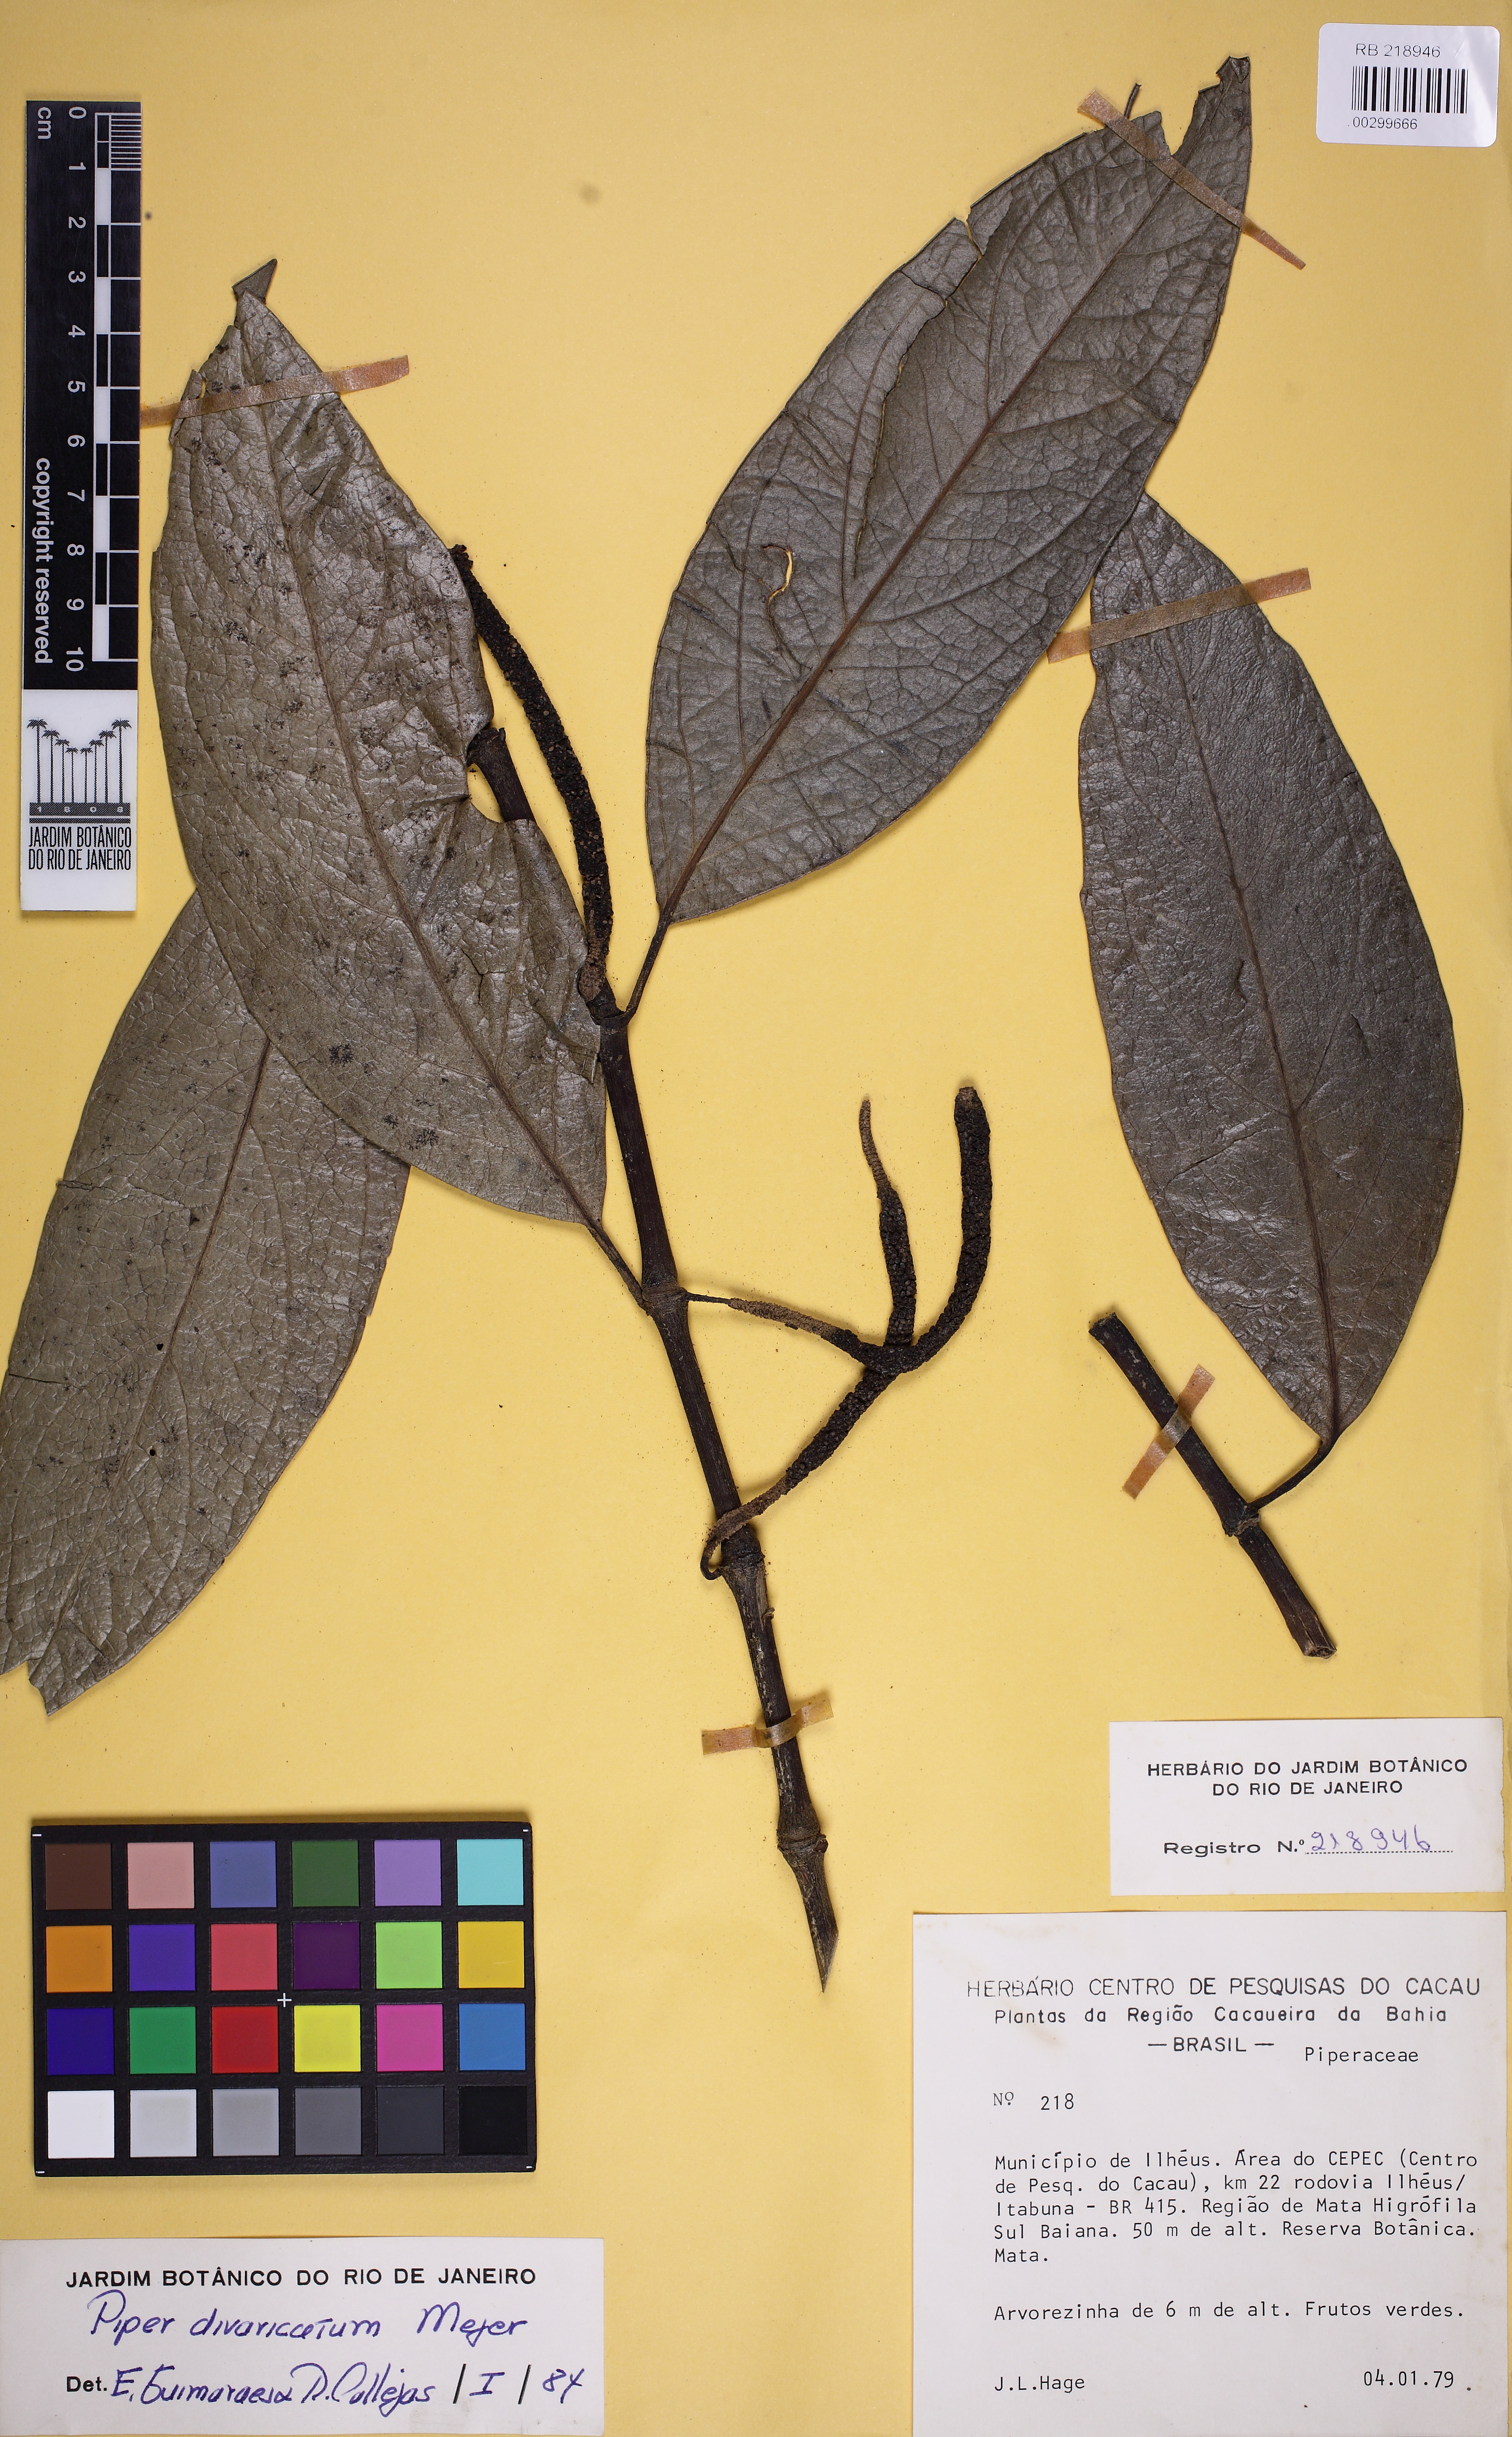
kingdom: Plantae
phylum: Tracheophyta
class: Magnoliopsida
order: Piperales
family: Piperaceae
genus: Piper
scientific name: Piper divaricatum
